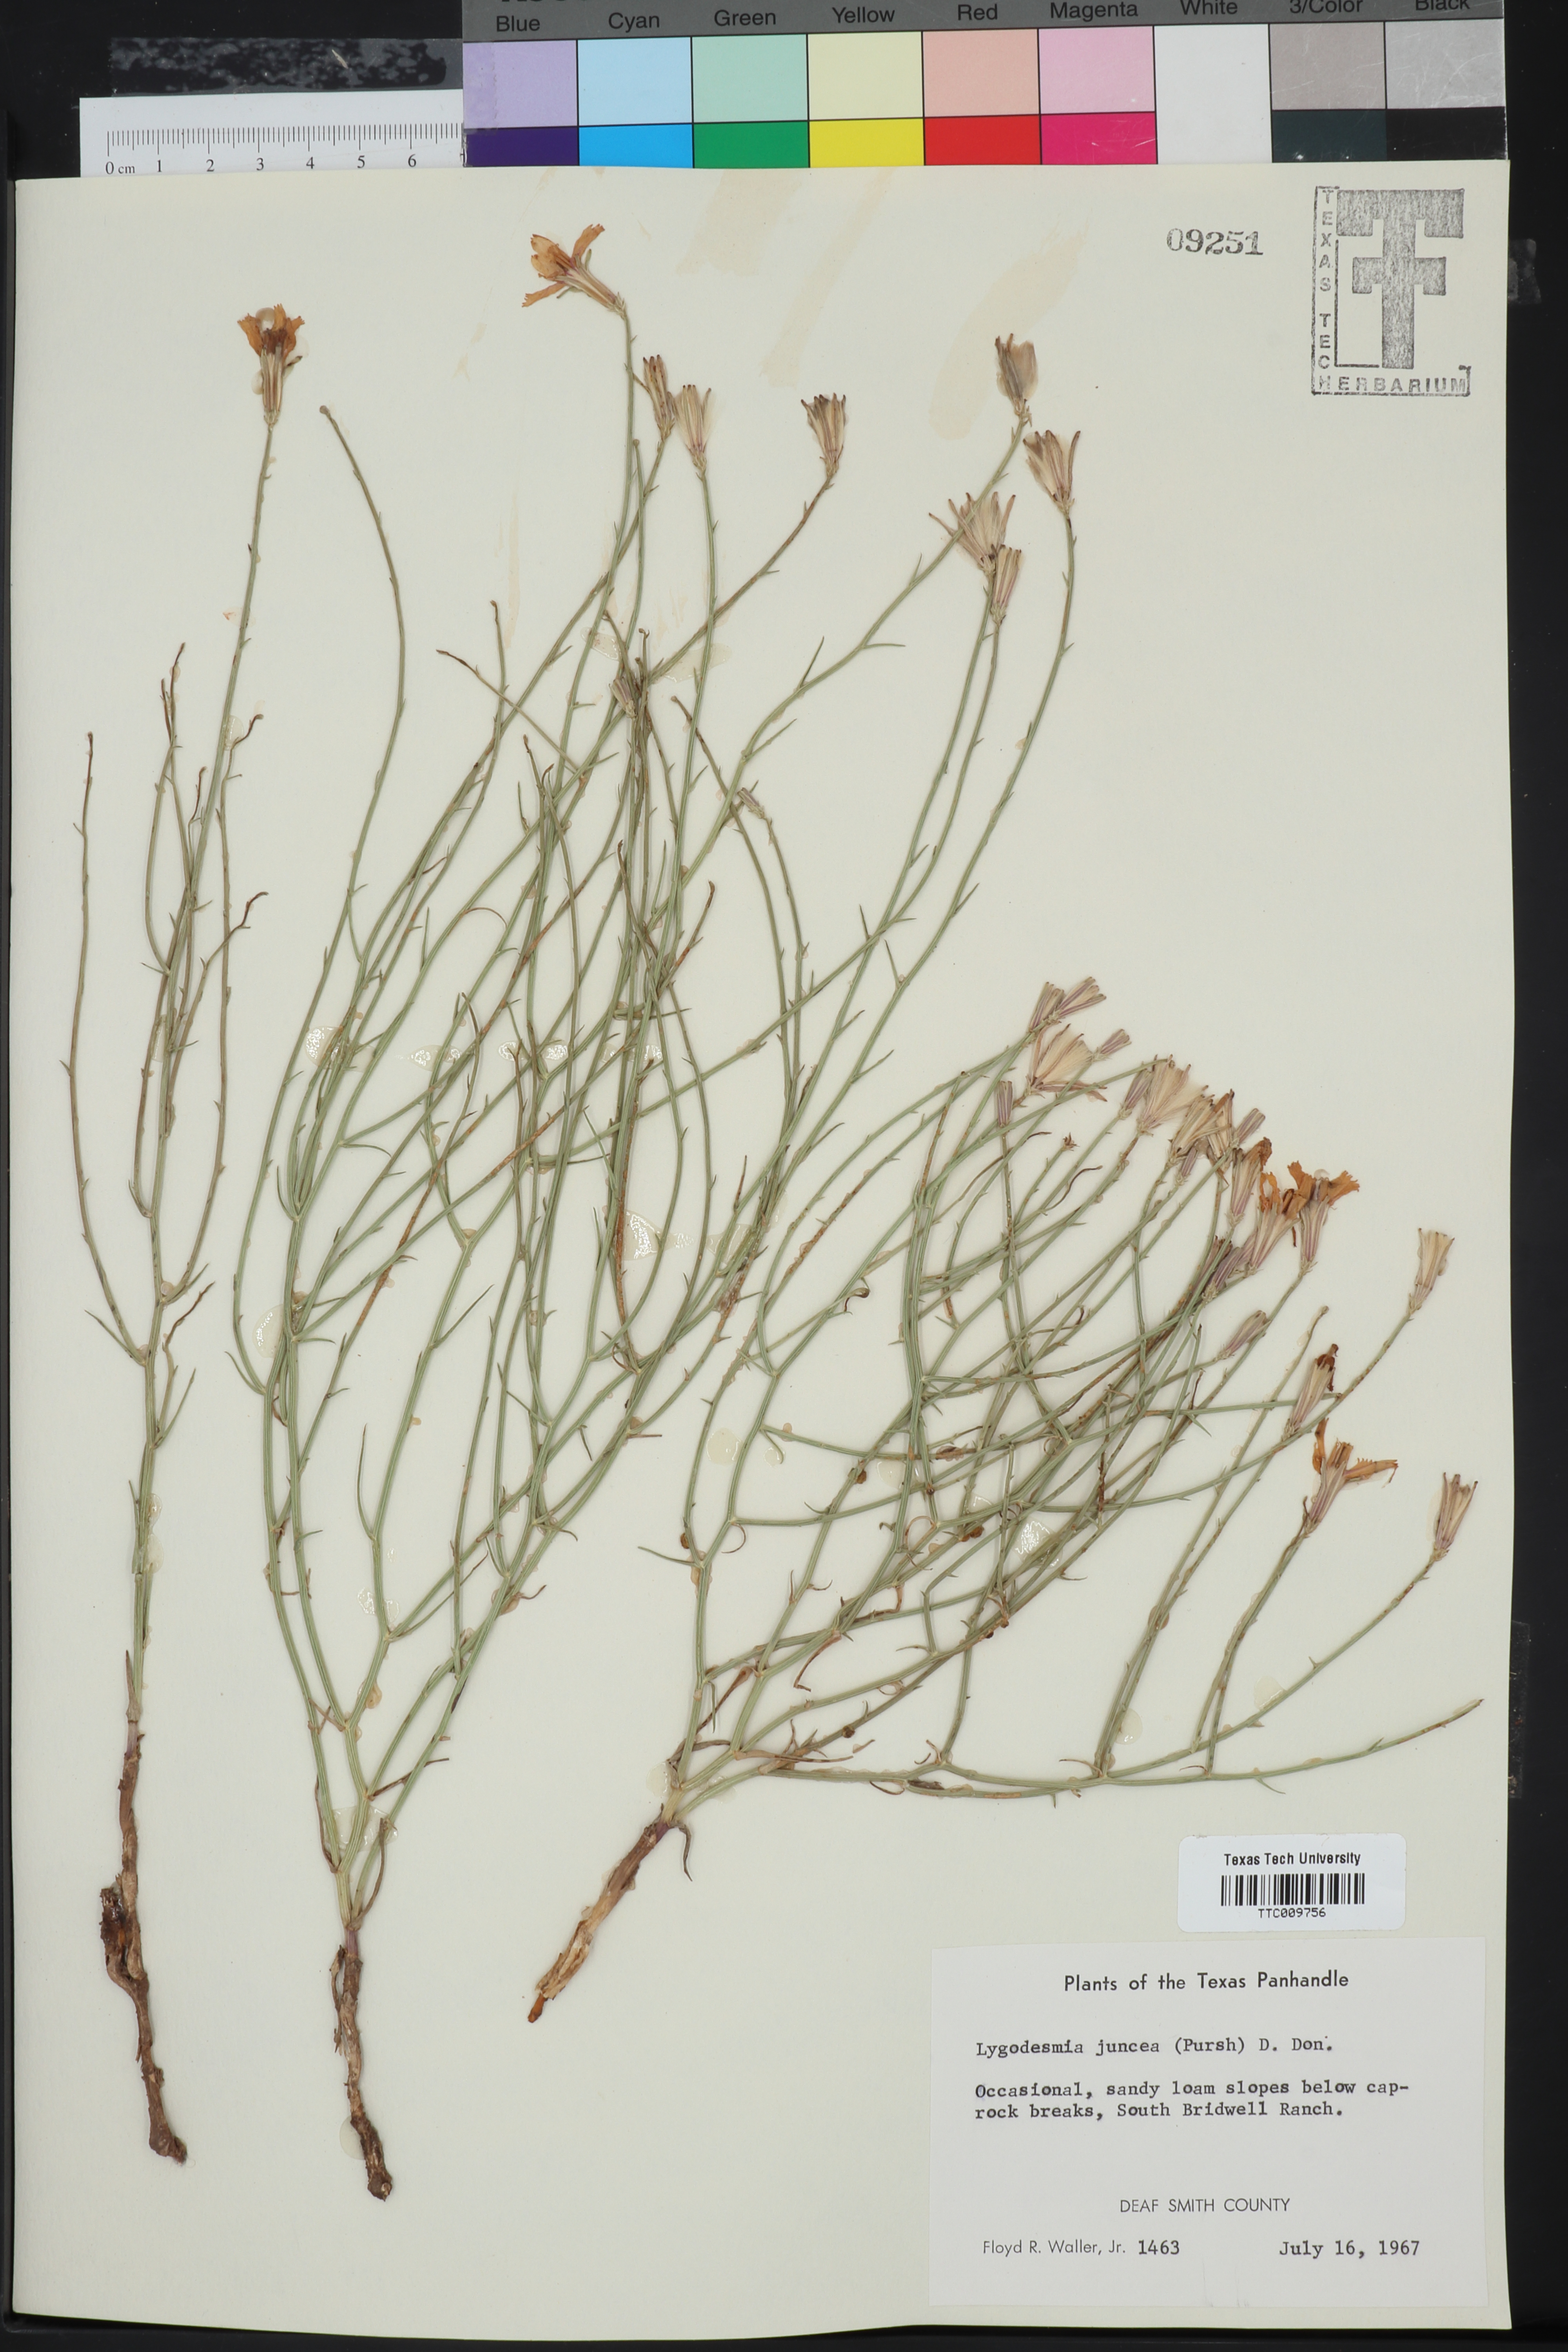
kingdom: Plantae
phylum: Tracheophyta
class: Magnoliopsida
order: Asterales
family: Asteraceae
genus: Lygodesmia
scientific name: Lygodesmia juncea
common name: Common skeletonweed
